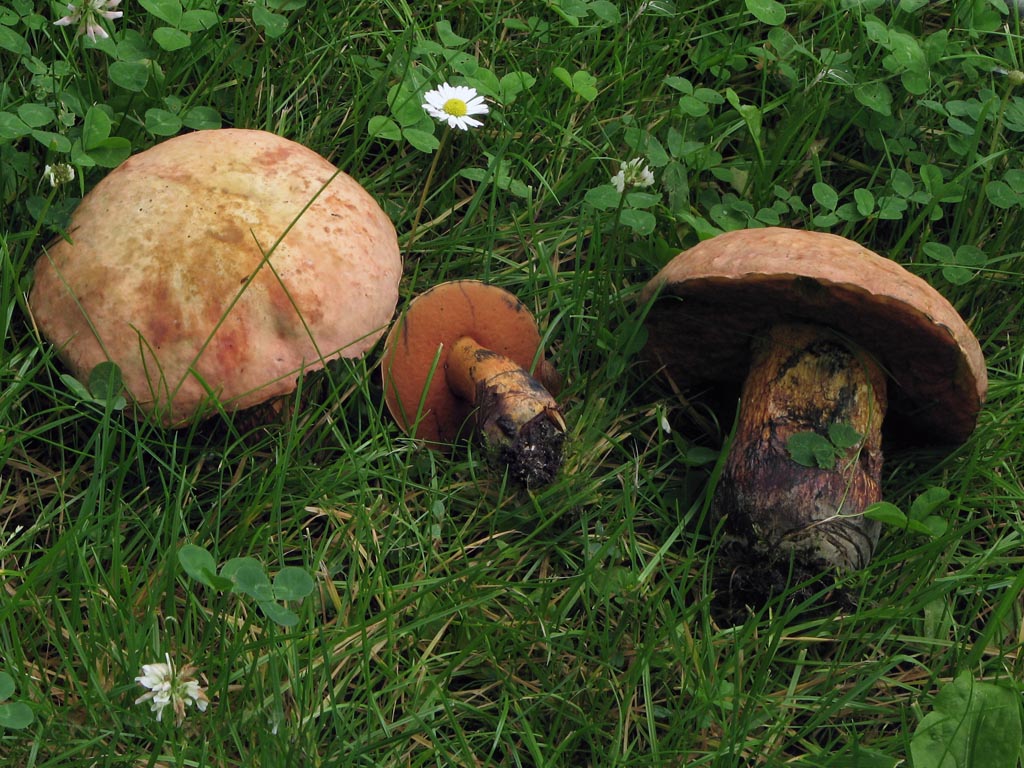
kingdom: Fungi
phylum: Basidiomycota
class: Agaricomycetes
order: Boletales
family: Boletaceae
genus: Suillellus
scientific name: Suillellus luridus
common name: netstokket indigorørhat
